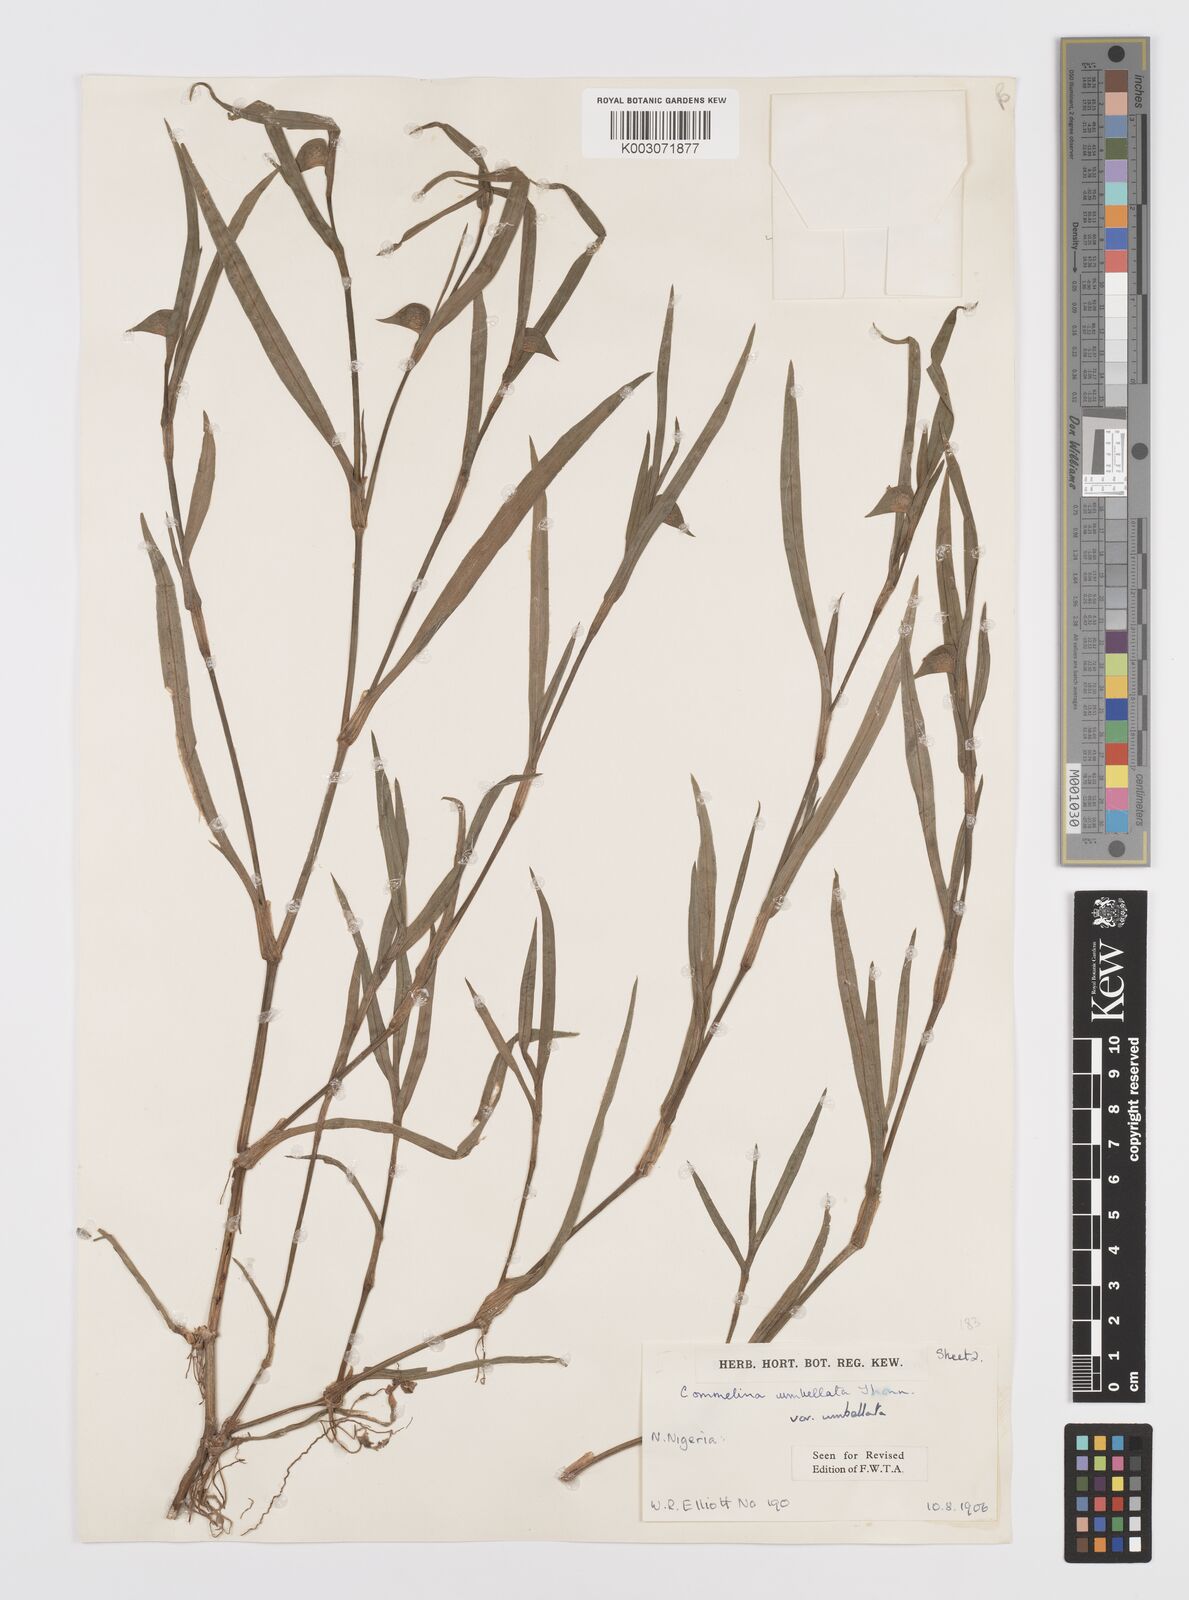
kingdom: Plantae
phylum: Tracheophyta
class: Liliopsida
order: Commelinales
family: Commelinaceae
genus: Commelina
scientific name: Commelina
